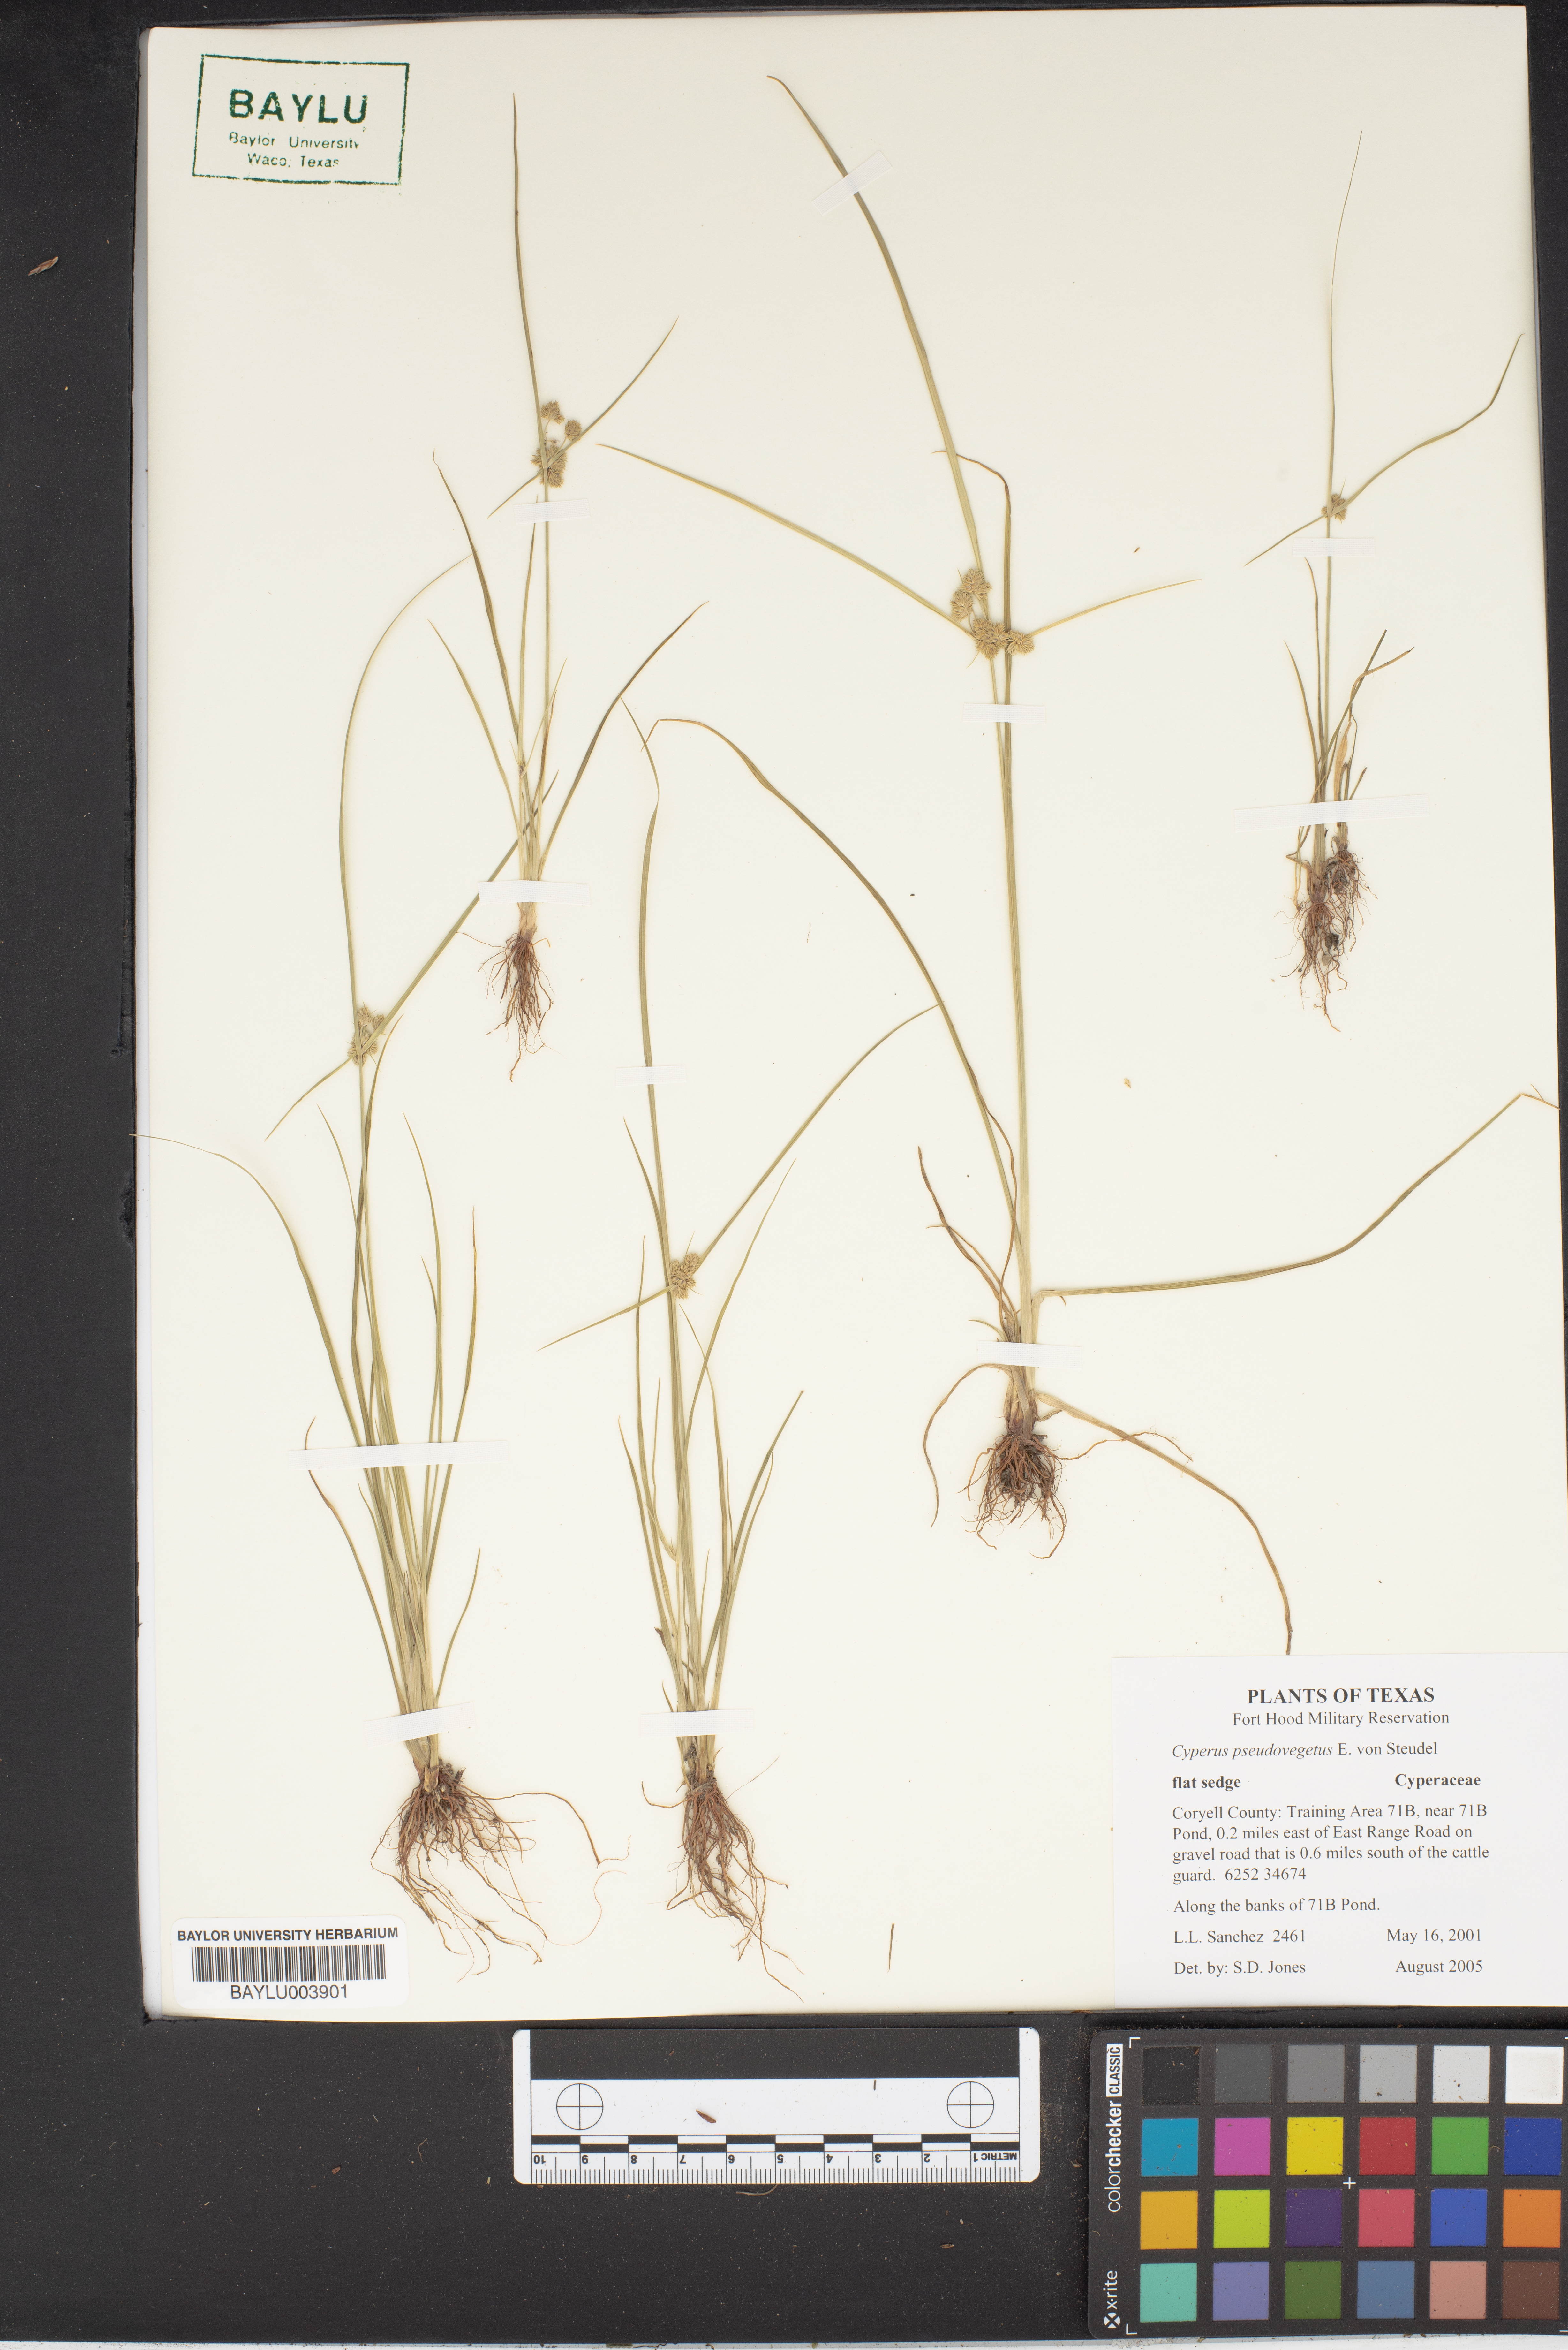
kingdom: Plantae
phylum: Tracheophyta
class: Liliopsida
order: Poales
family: Cyperaceae
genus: Cyperus
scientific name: Cyperus pseudovegetus
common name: Marsh flat sedge
